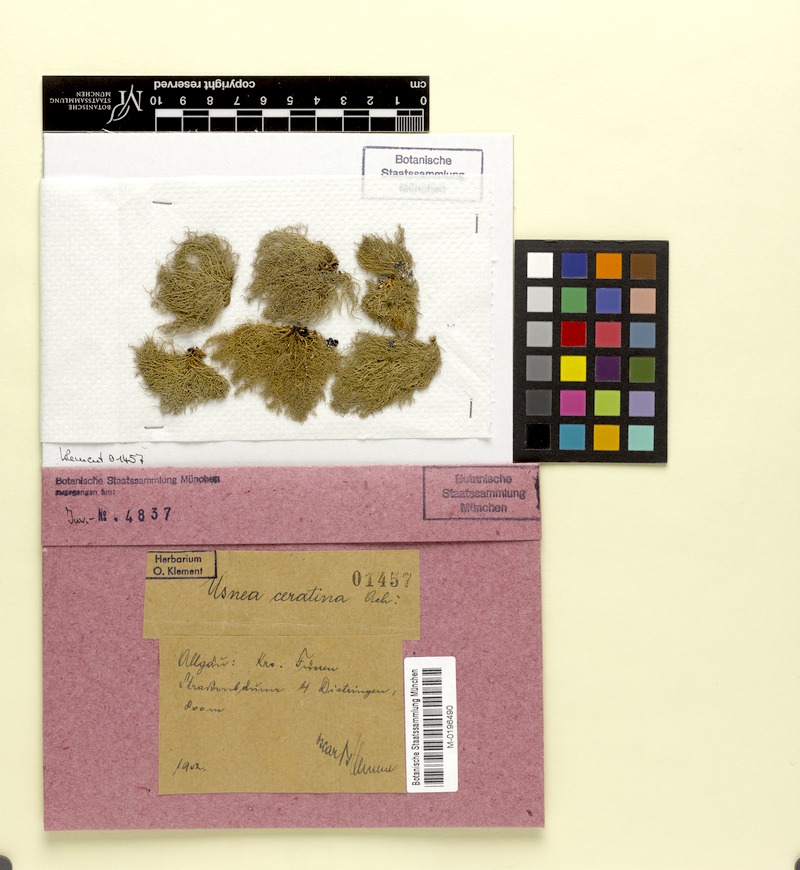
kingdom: Fungi
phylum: Ascomycota
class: Lecanoromycetes
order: Lecanorales
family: Parmeliaceae
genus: Usnea
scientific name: Usnea ceratina
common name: Warty beard lichen
